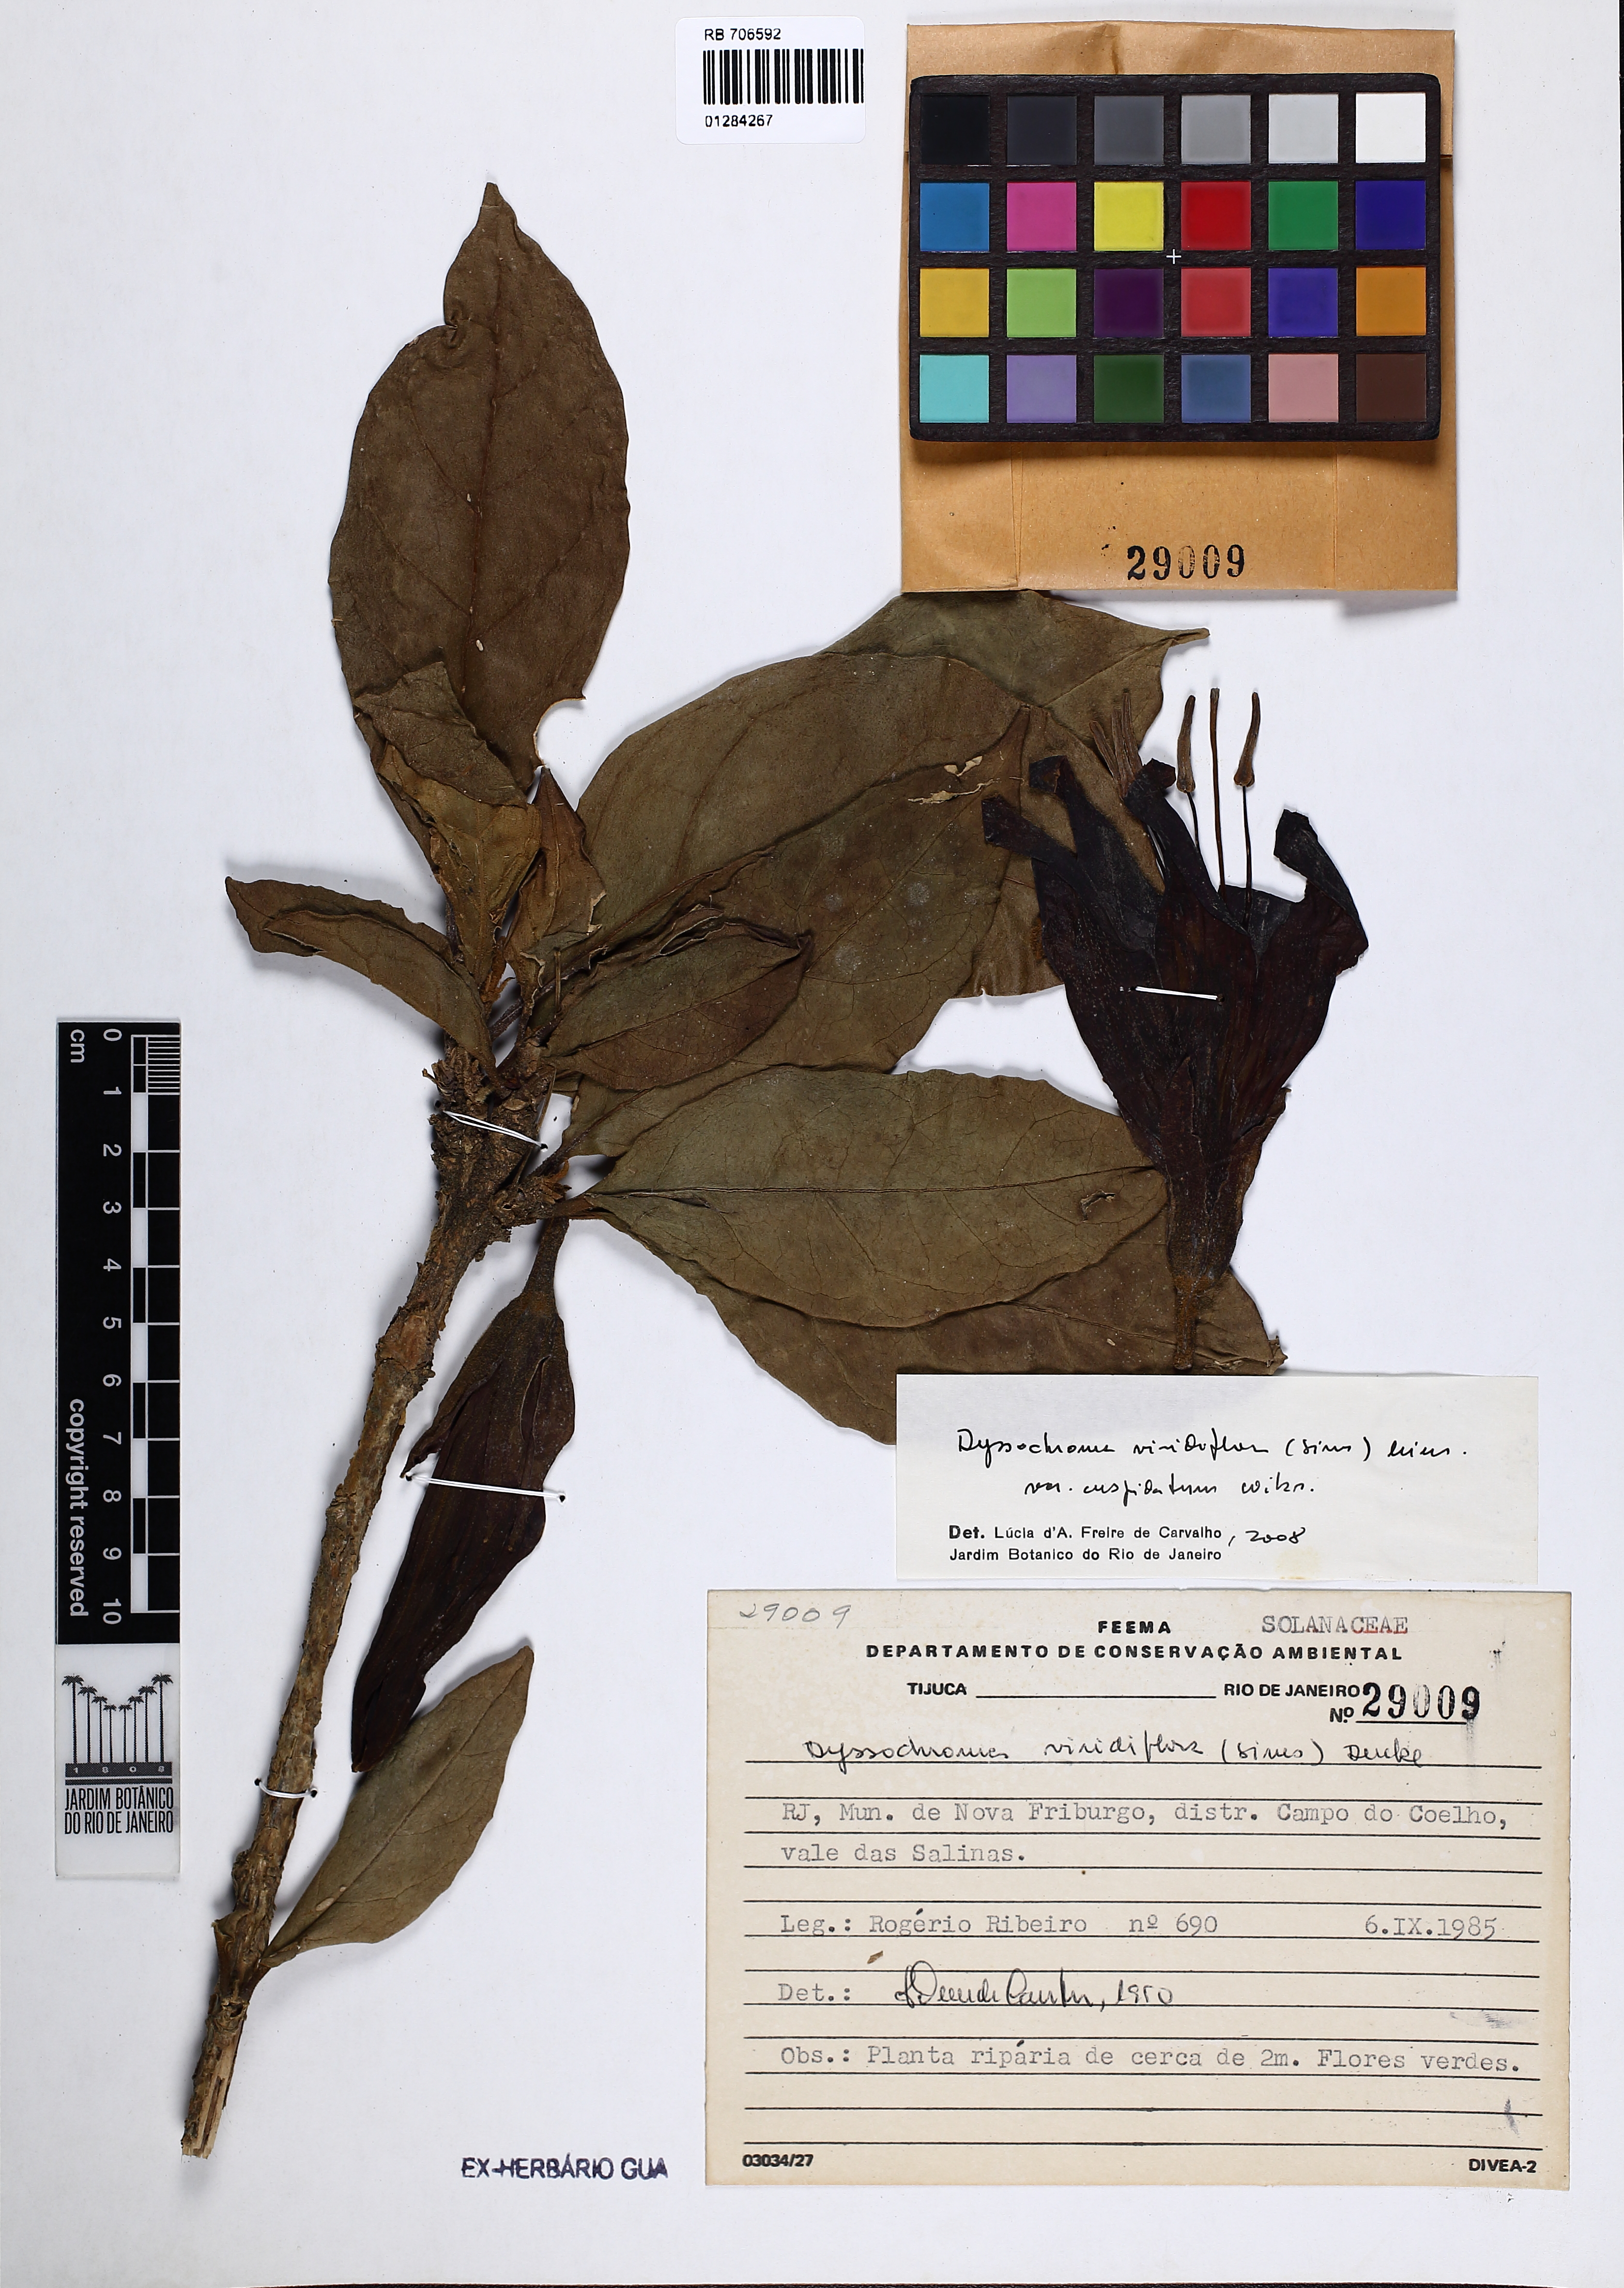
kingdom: Plantae
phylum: Tracheophyta
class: Magnoliopsida
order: Solanales
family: Solanaceae
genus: Dyssochroma
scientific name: Dyssochroma viridiflorum
